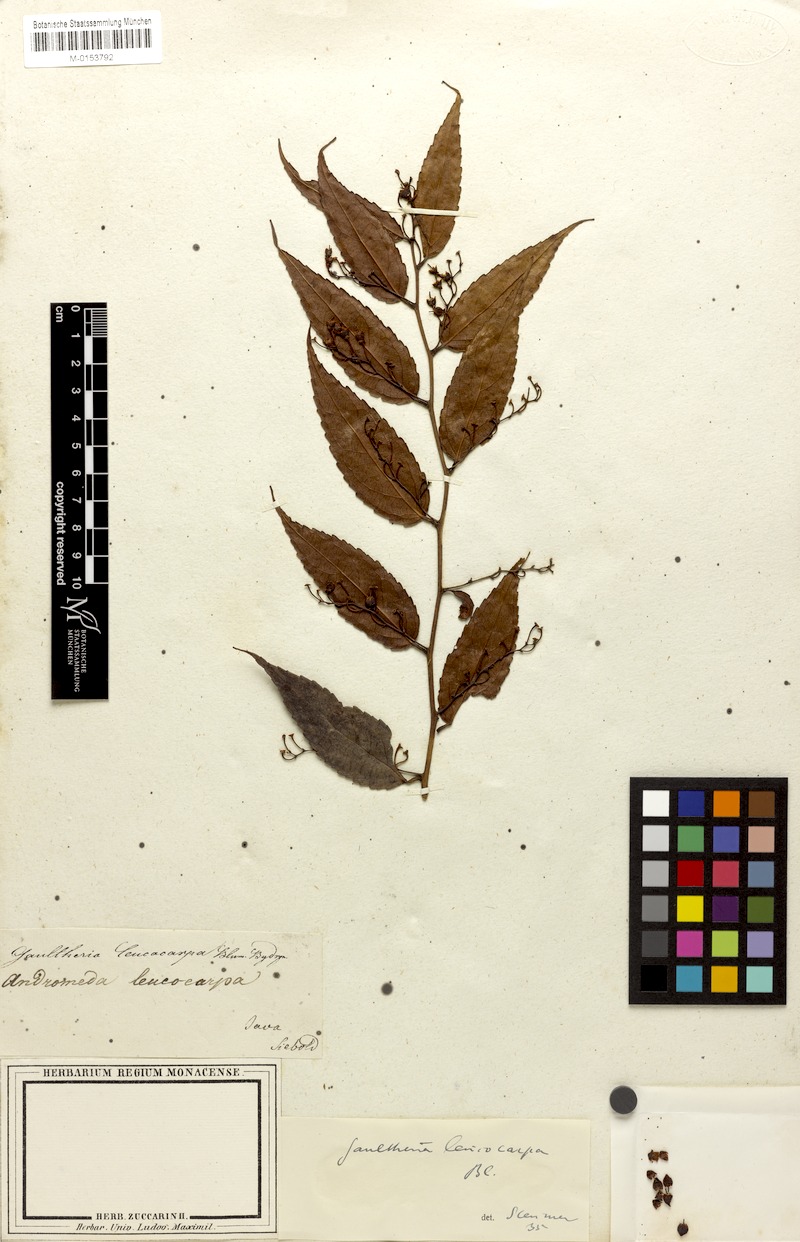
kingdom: Plantae
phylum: Tracheophyta
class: Magnoliopsida
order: Ericales
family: Ericaceae
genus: Gaultheria
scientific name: Gaultheria leucocarpa
